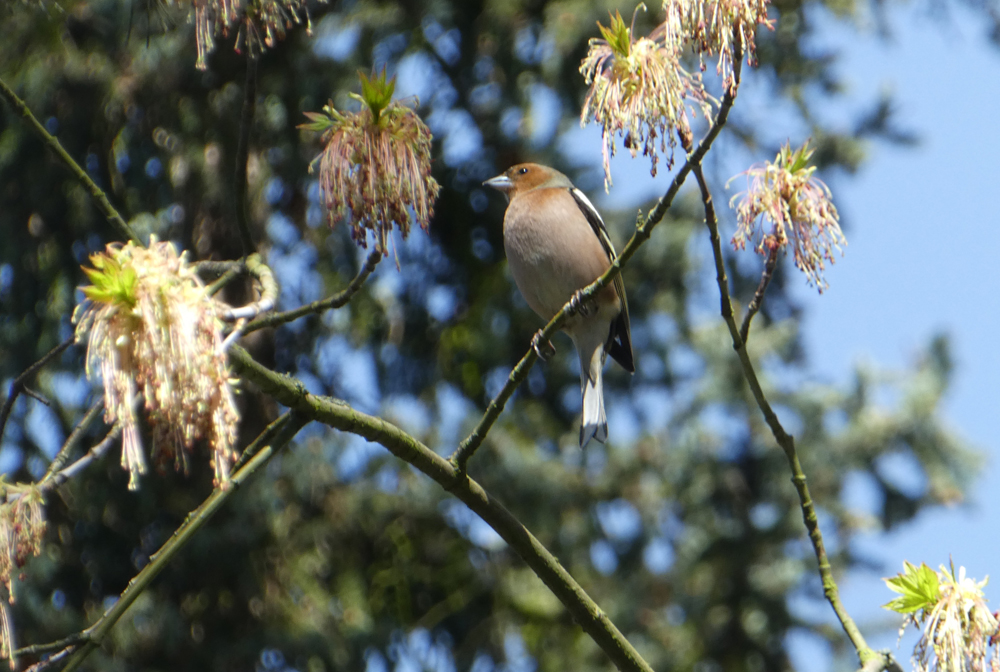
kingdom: Animalia
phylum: Chordata
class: Aves
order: Passeriformes
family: Fringillidae
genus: Fringilla
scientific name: Fringilla coelebs
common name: Common chaffinch
